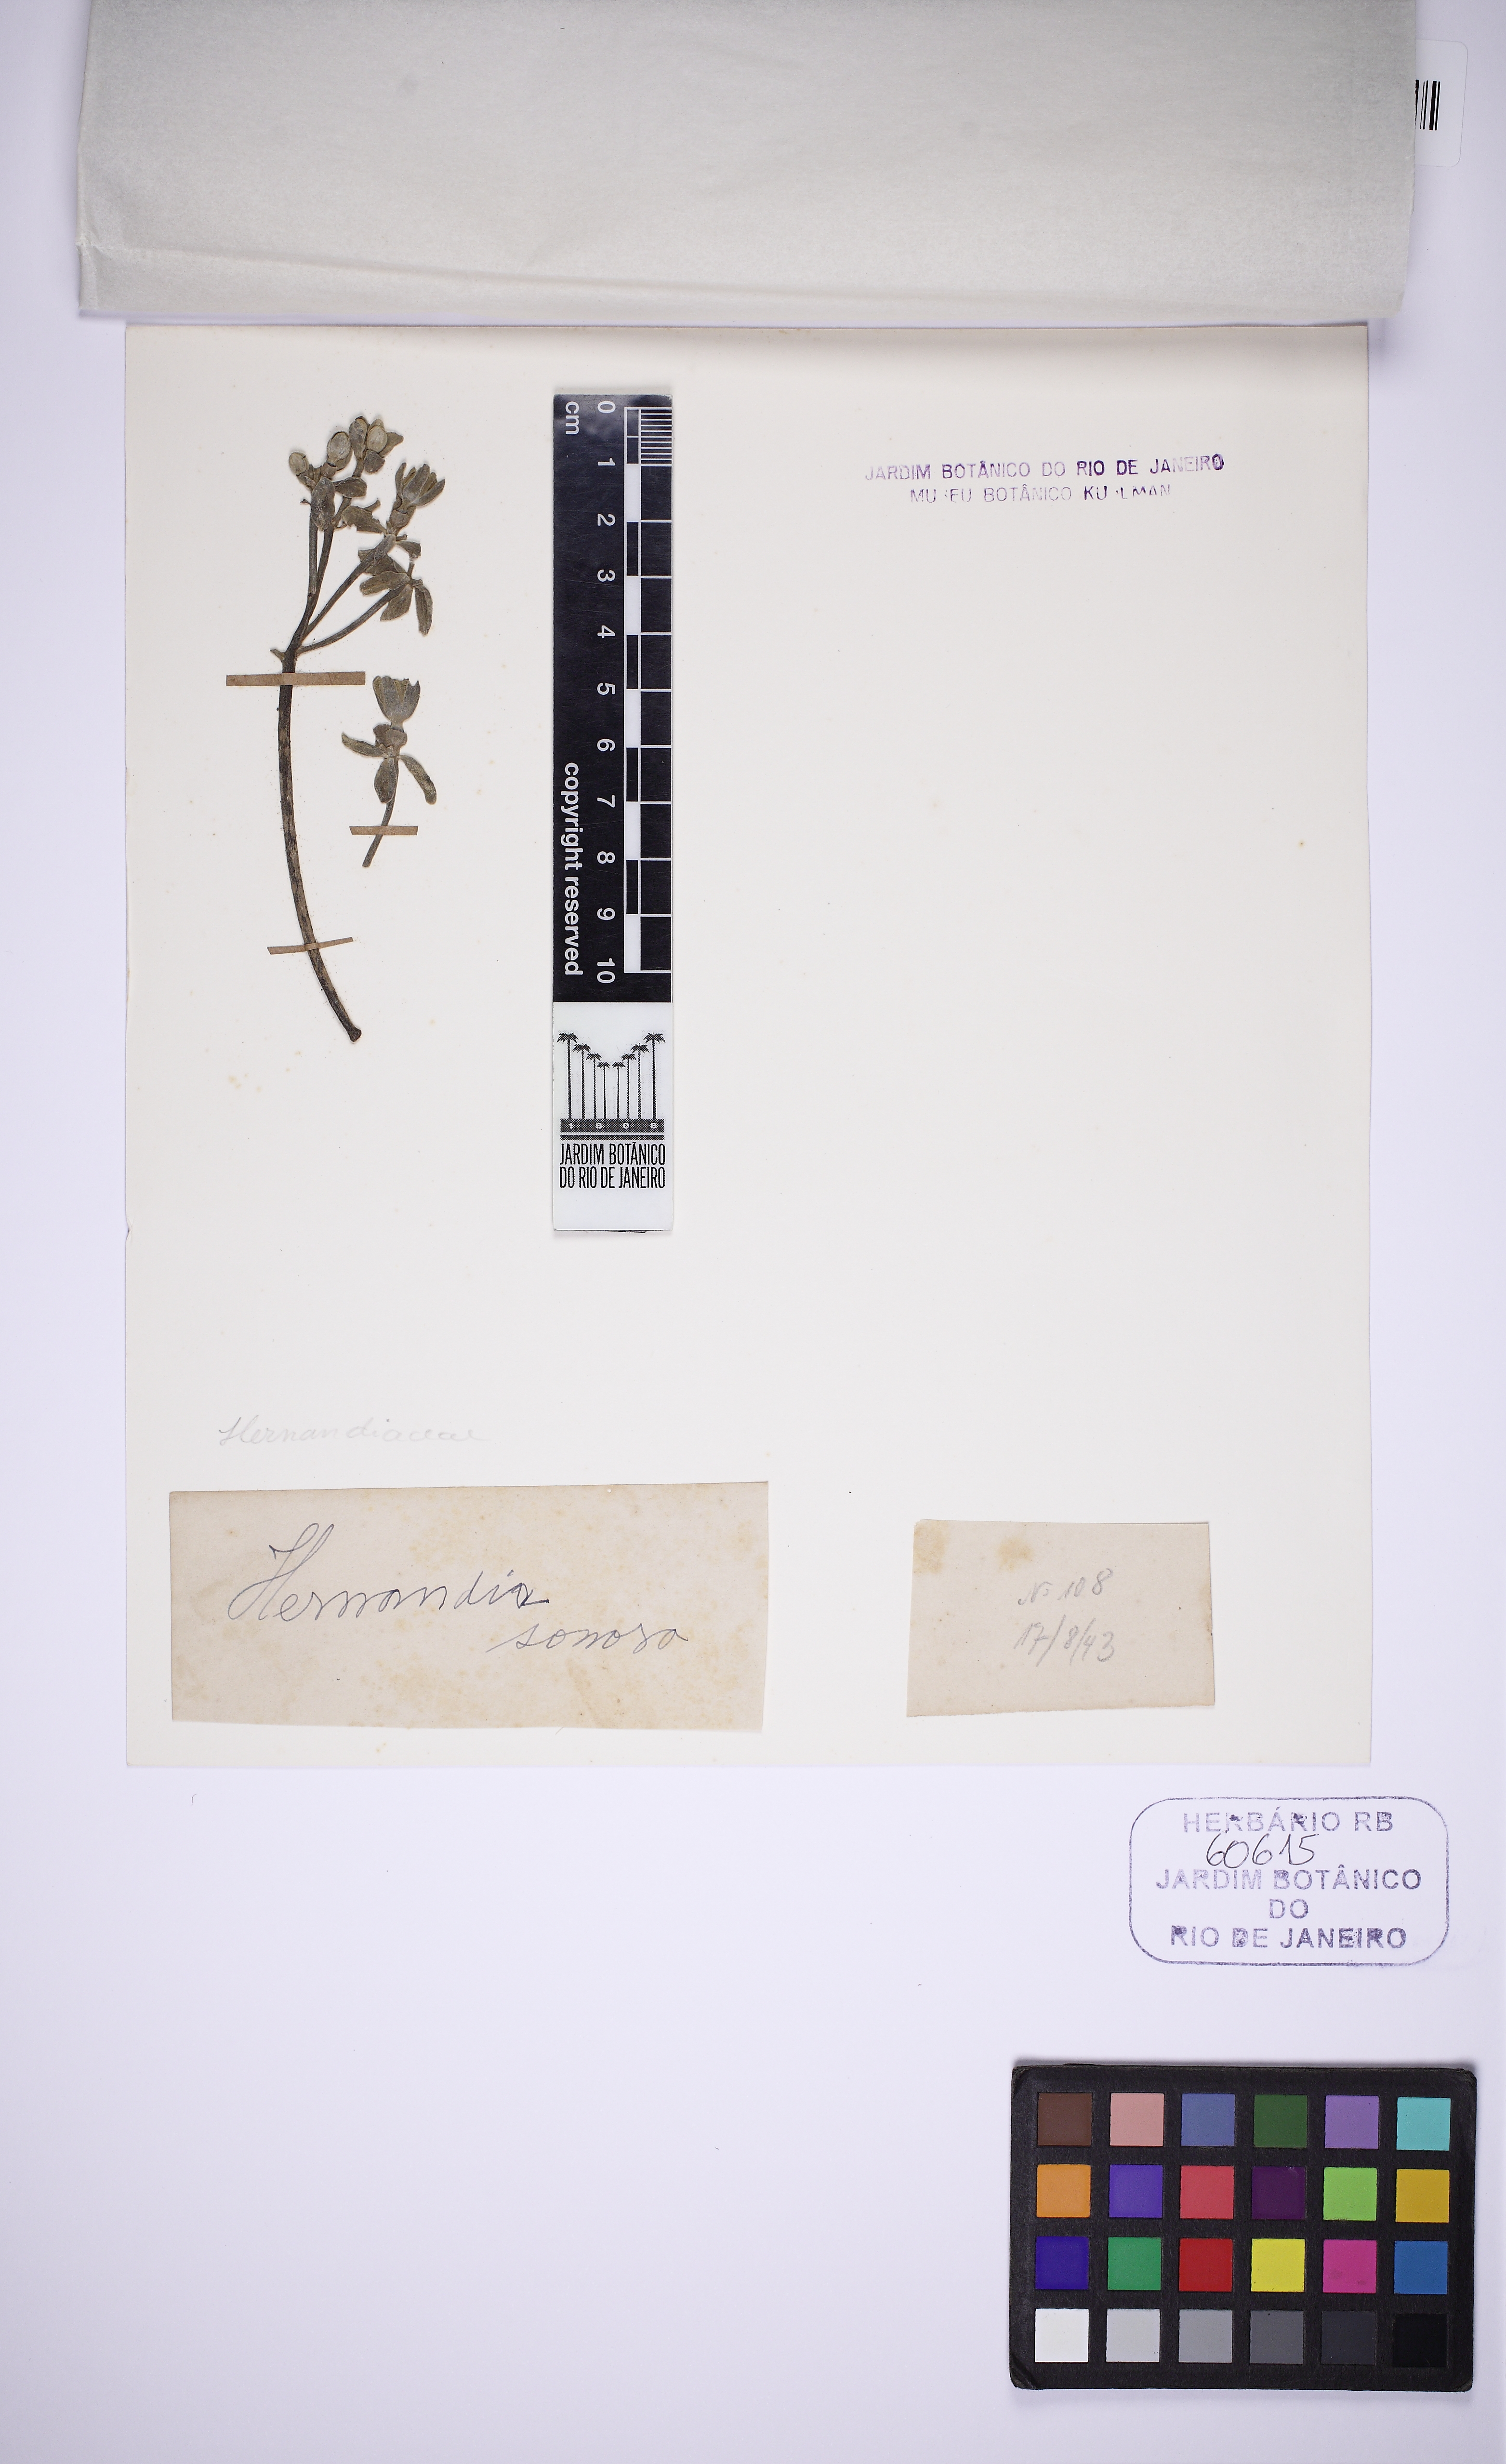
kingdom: Plantae
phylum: Tracheophyta
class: Magnoliopsida
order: Laurales
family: Hernandiaceae
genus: Hernandia
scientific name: Hernandia sonora
